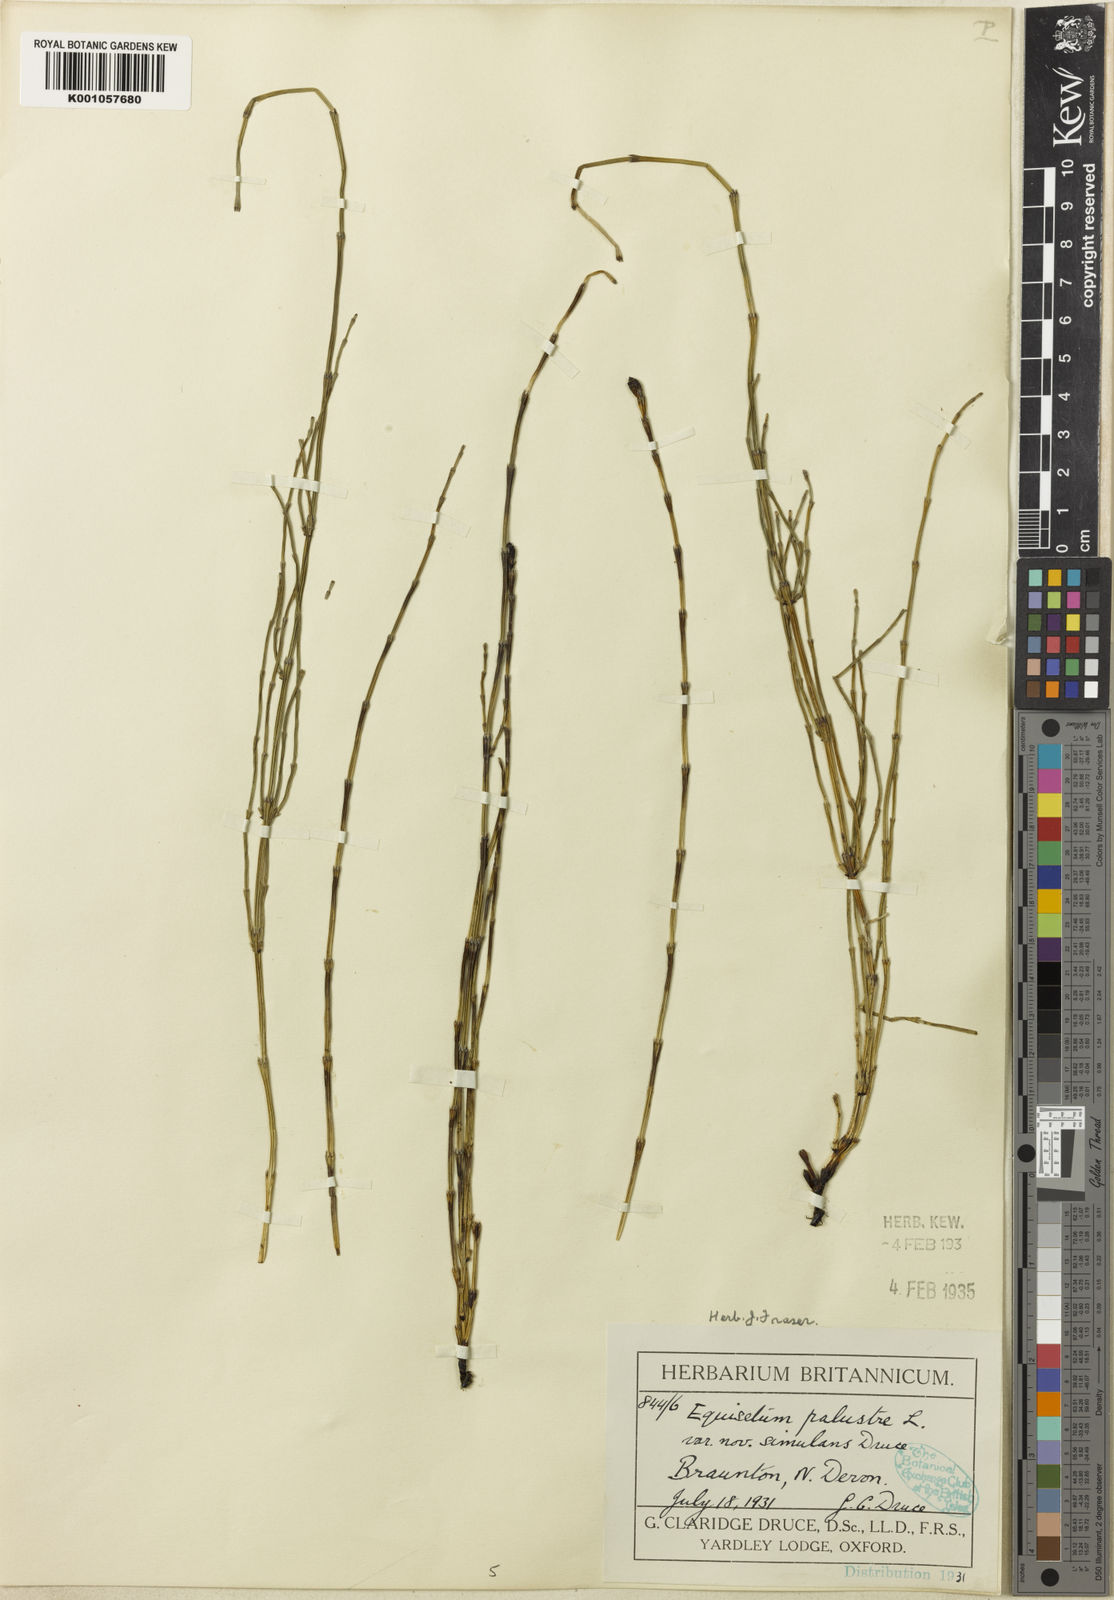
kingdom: Plantae
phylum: Tracheophyta
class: Polypodiopsida
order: Equisetales
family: Equisetaceae
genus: Equisetum
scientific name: Equisetum palustre
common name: Marsh horsetail
